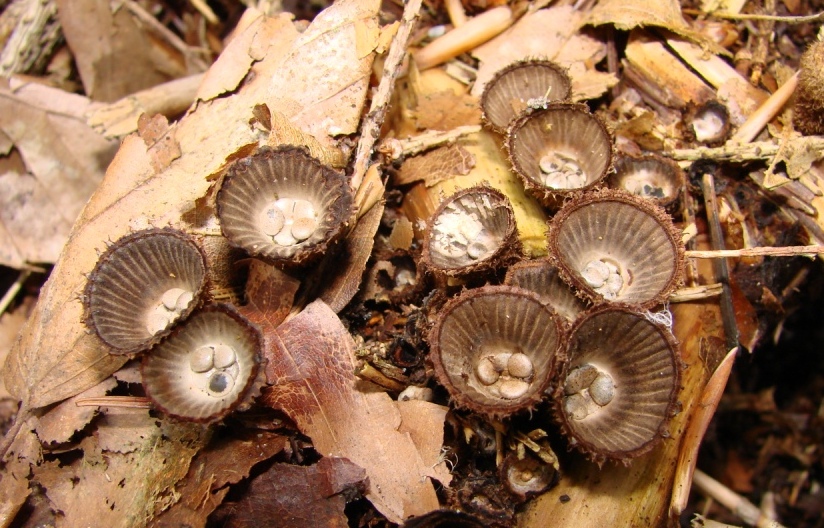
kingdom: Fungi
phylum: Basidiomycota
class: Agaricomycetes
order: Agaricales
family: Agaricaceae
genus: Cyathus
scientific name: Cyathus striatus
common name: stribet redesvamp
